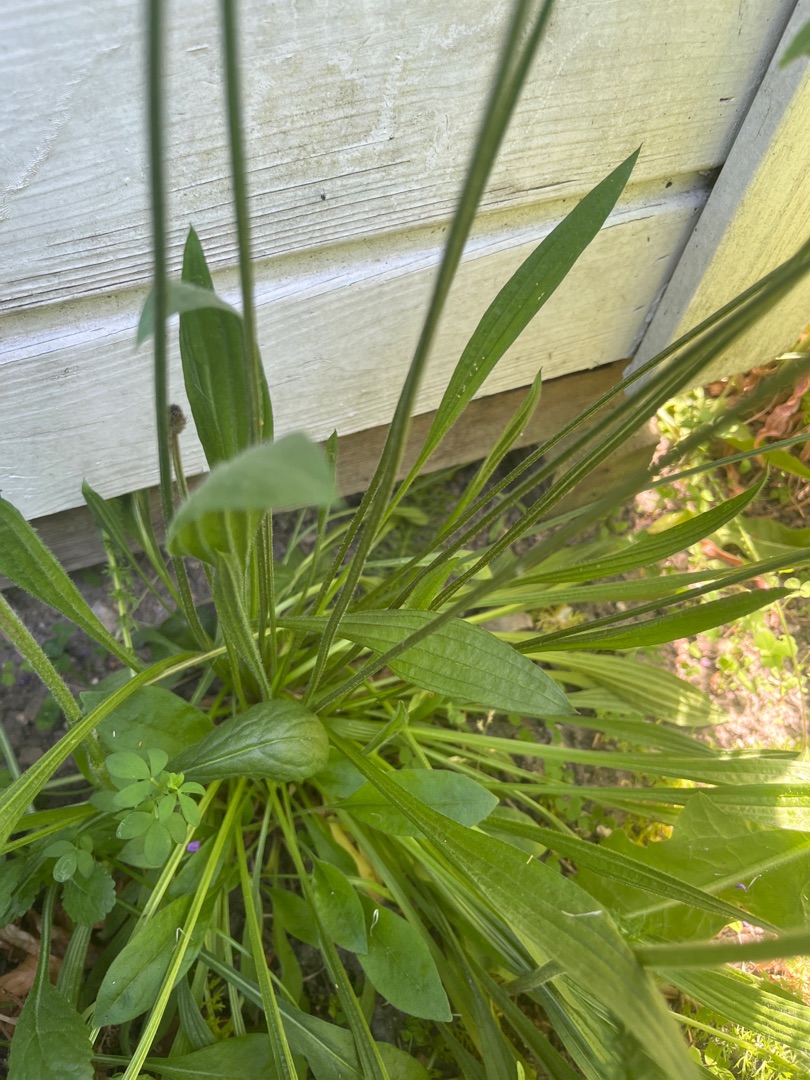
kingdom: Plantae
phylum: Tracheophyta
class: Magnoliopsida
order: Lamiales
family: Plantaginaceae
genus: Plantago
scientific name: Plantago lanceolata
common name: Lancet-vejbred
